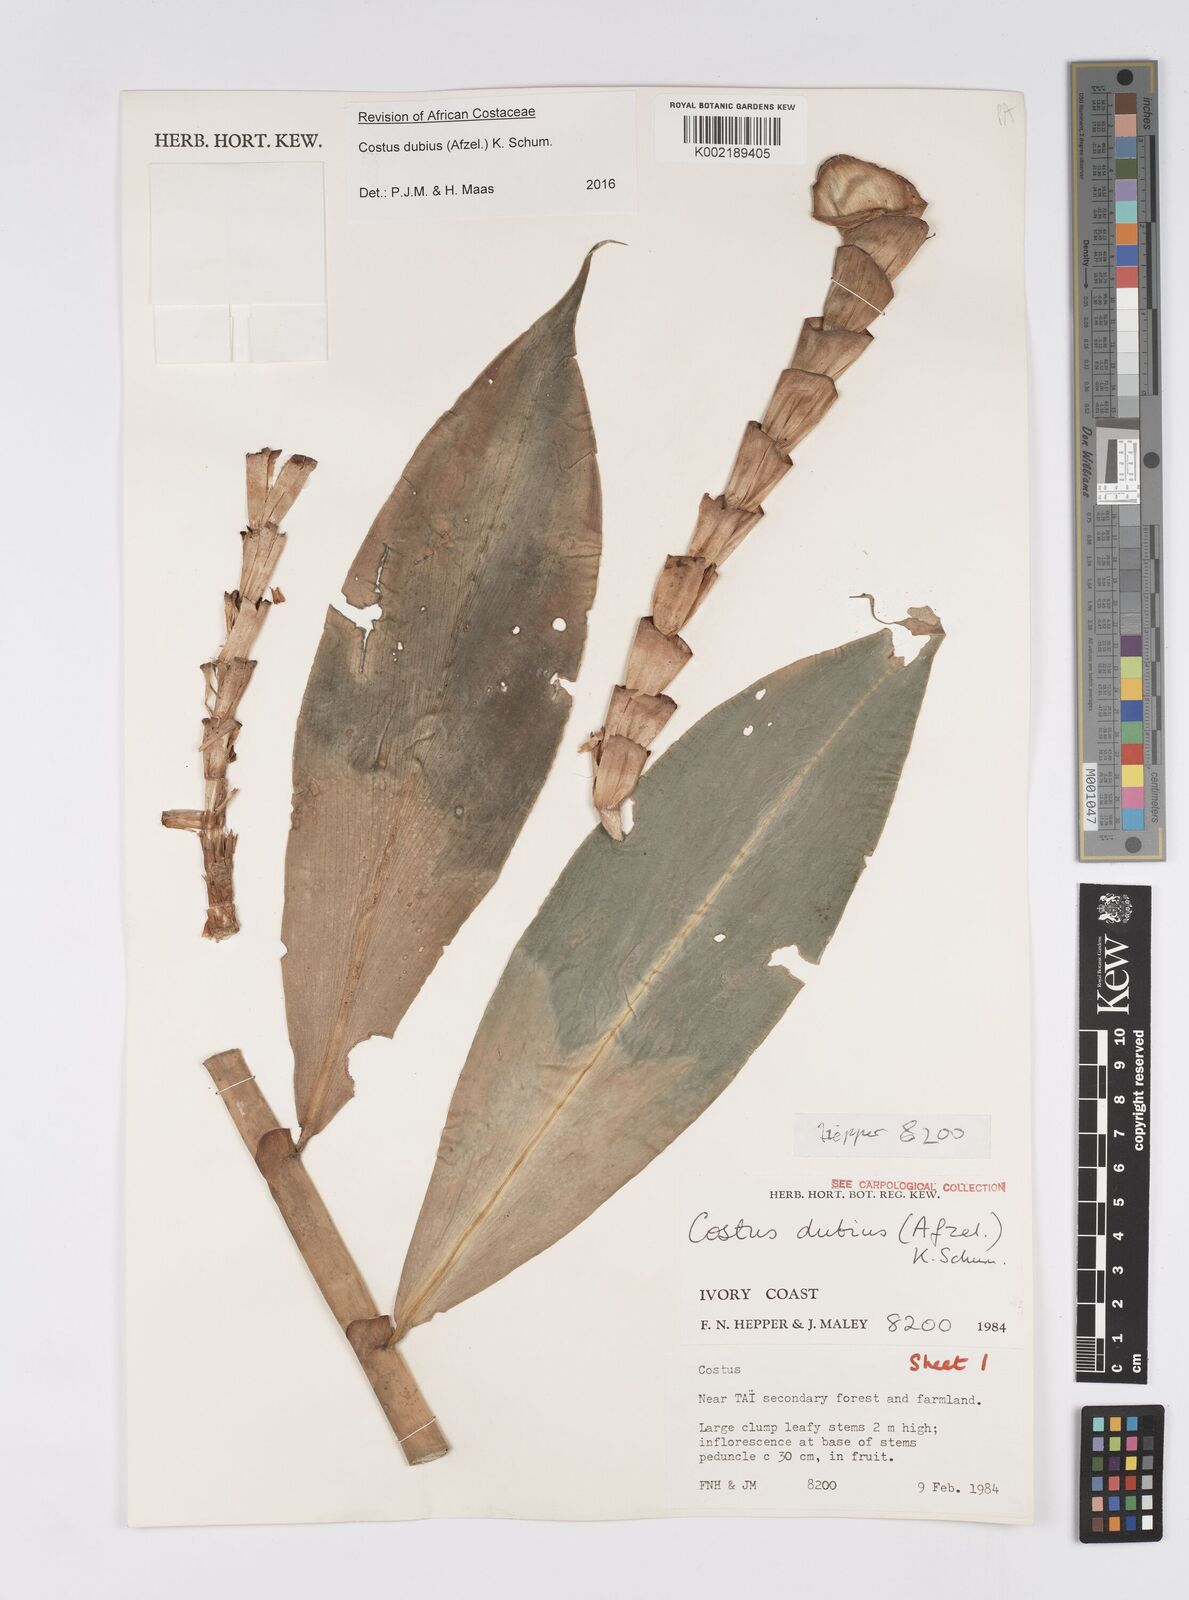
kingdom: Plantae
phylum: Tracheophyta
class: Liliopsida
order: Zingiberales
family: Costaceae
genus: Costus
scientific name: Costus dubius
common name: Costus
